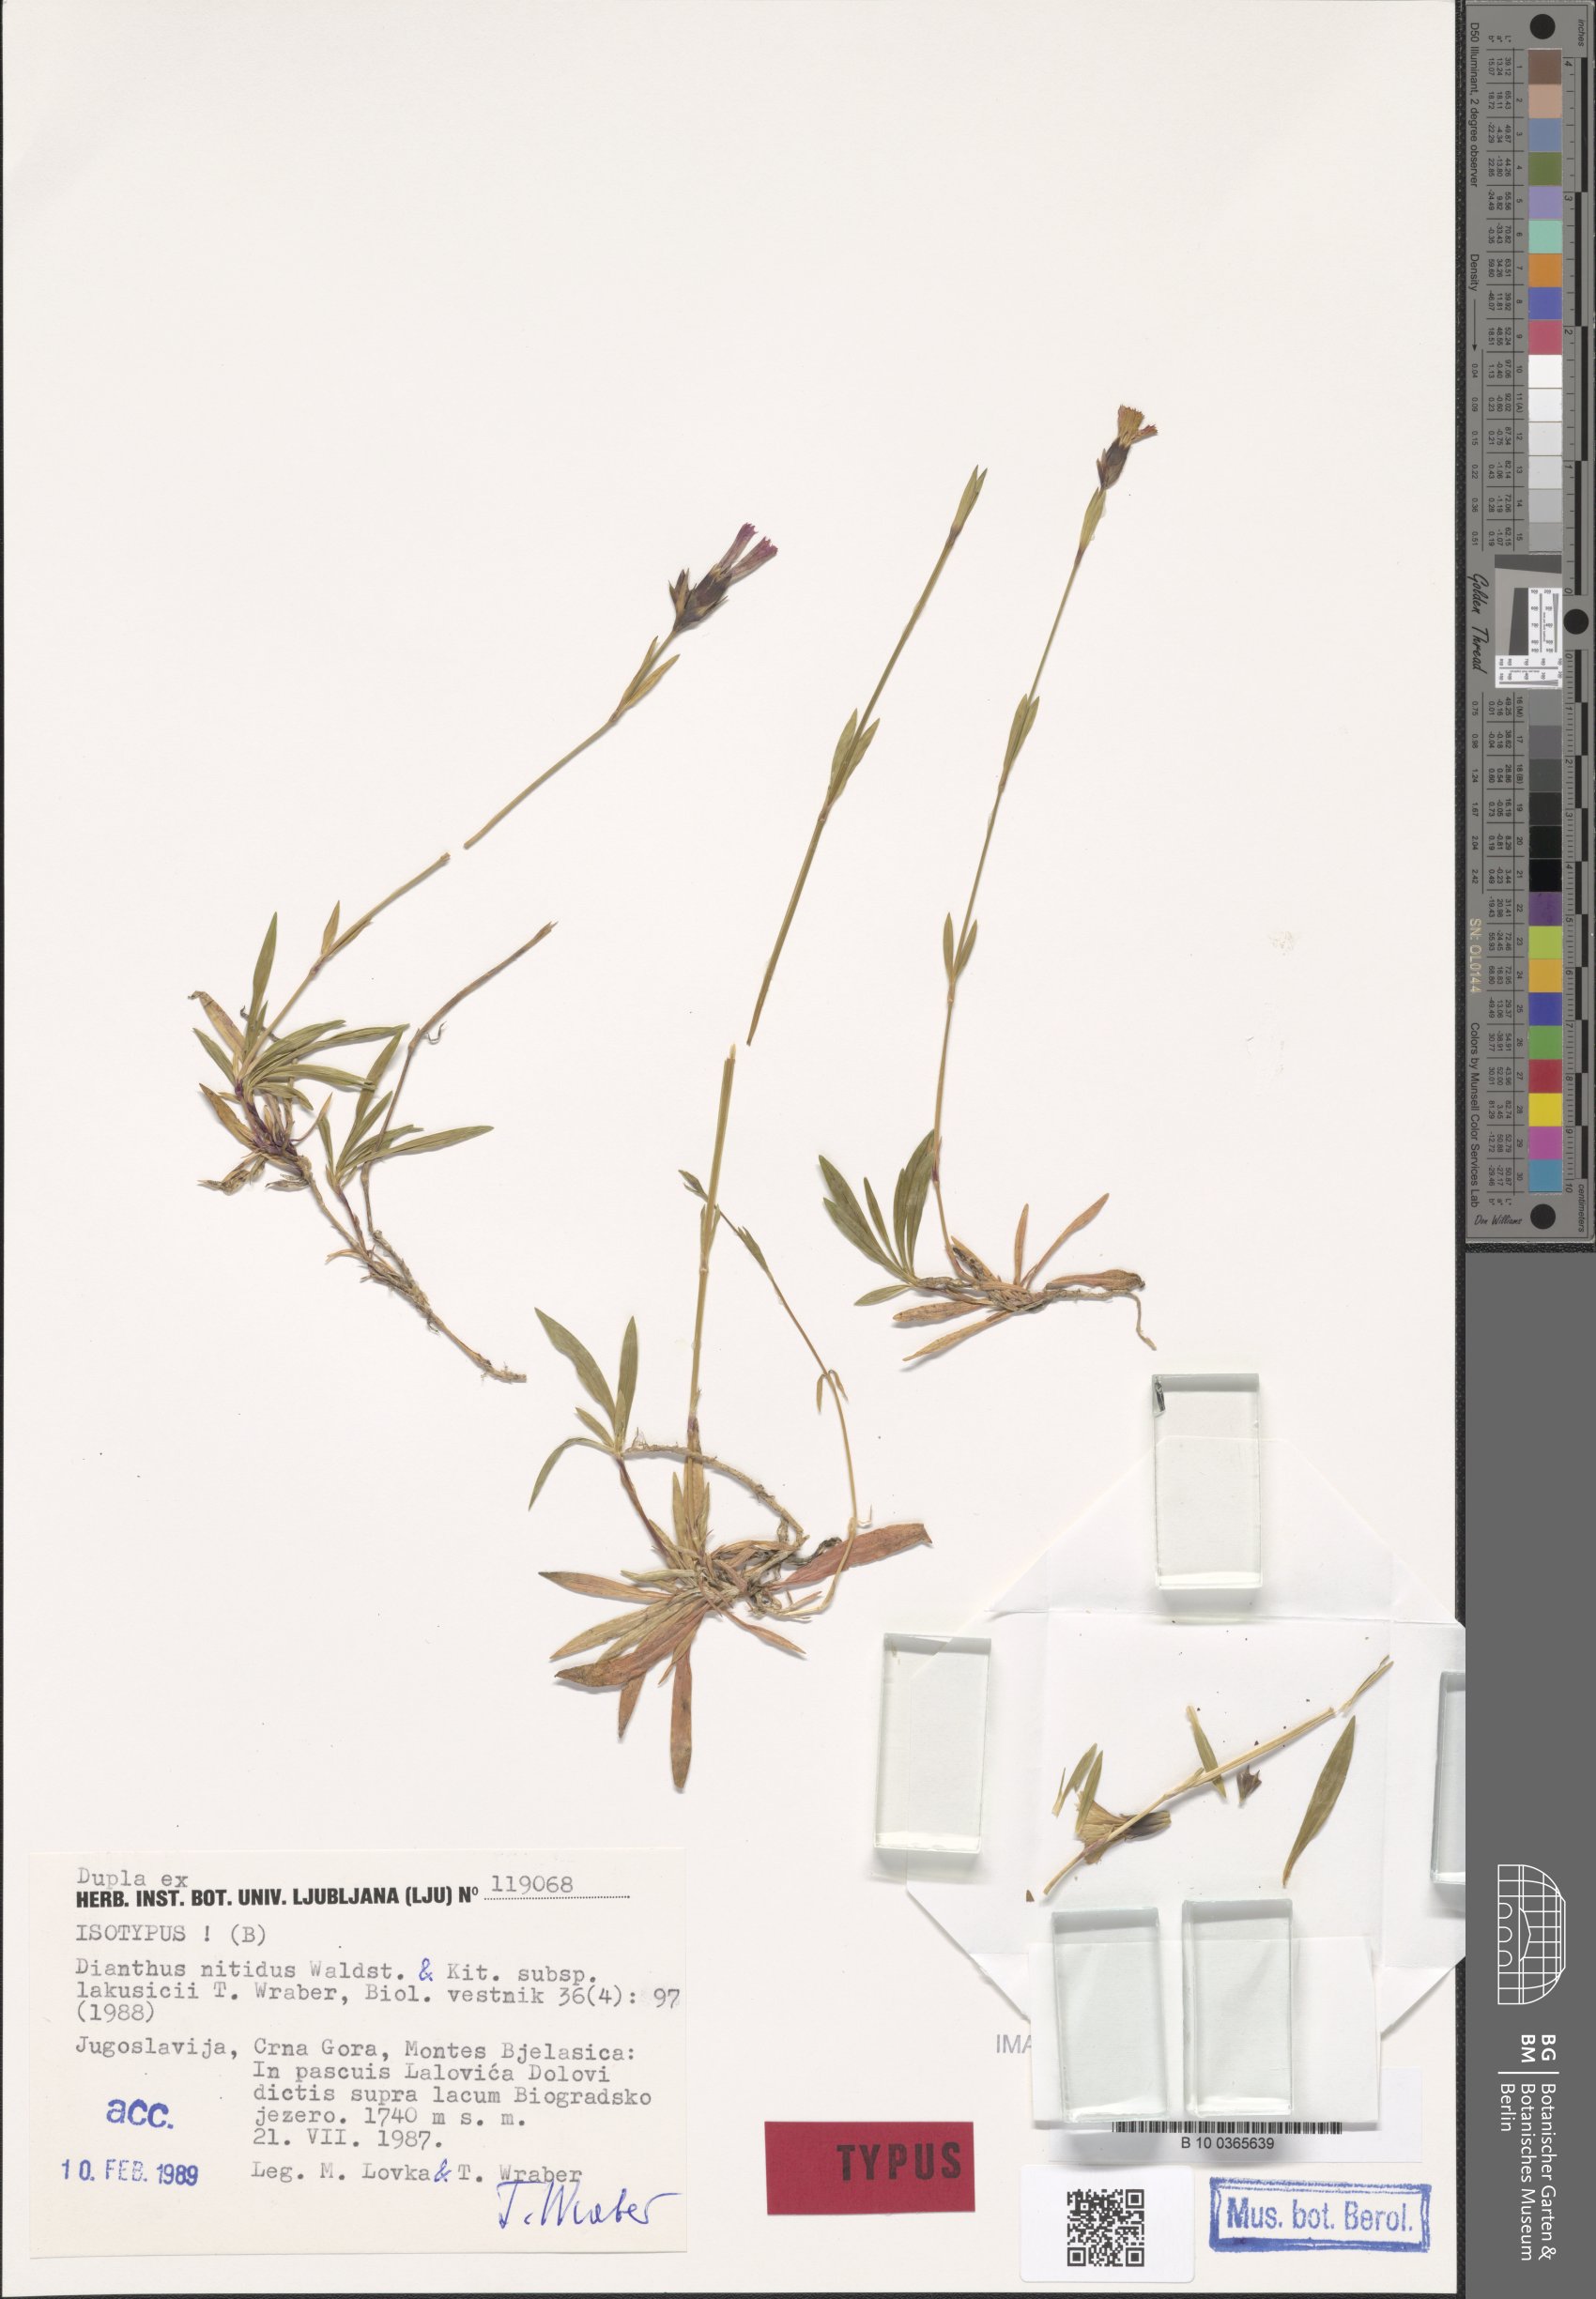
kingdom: Plantae
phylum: Tracheophyta
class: Magnoliopsida
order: Caryophyllales
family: Caryophyllaceae
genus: Dianthus
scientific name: Dianthus scardicus
